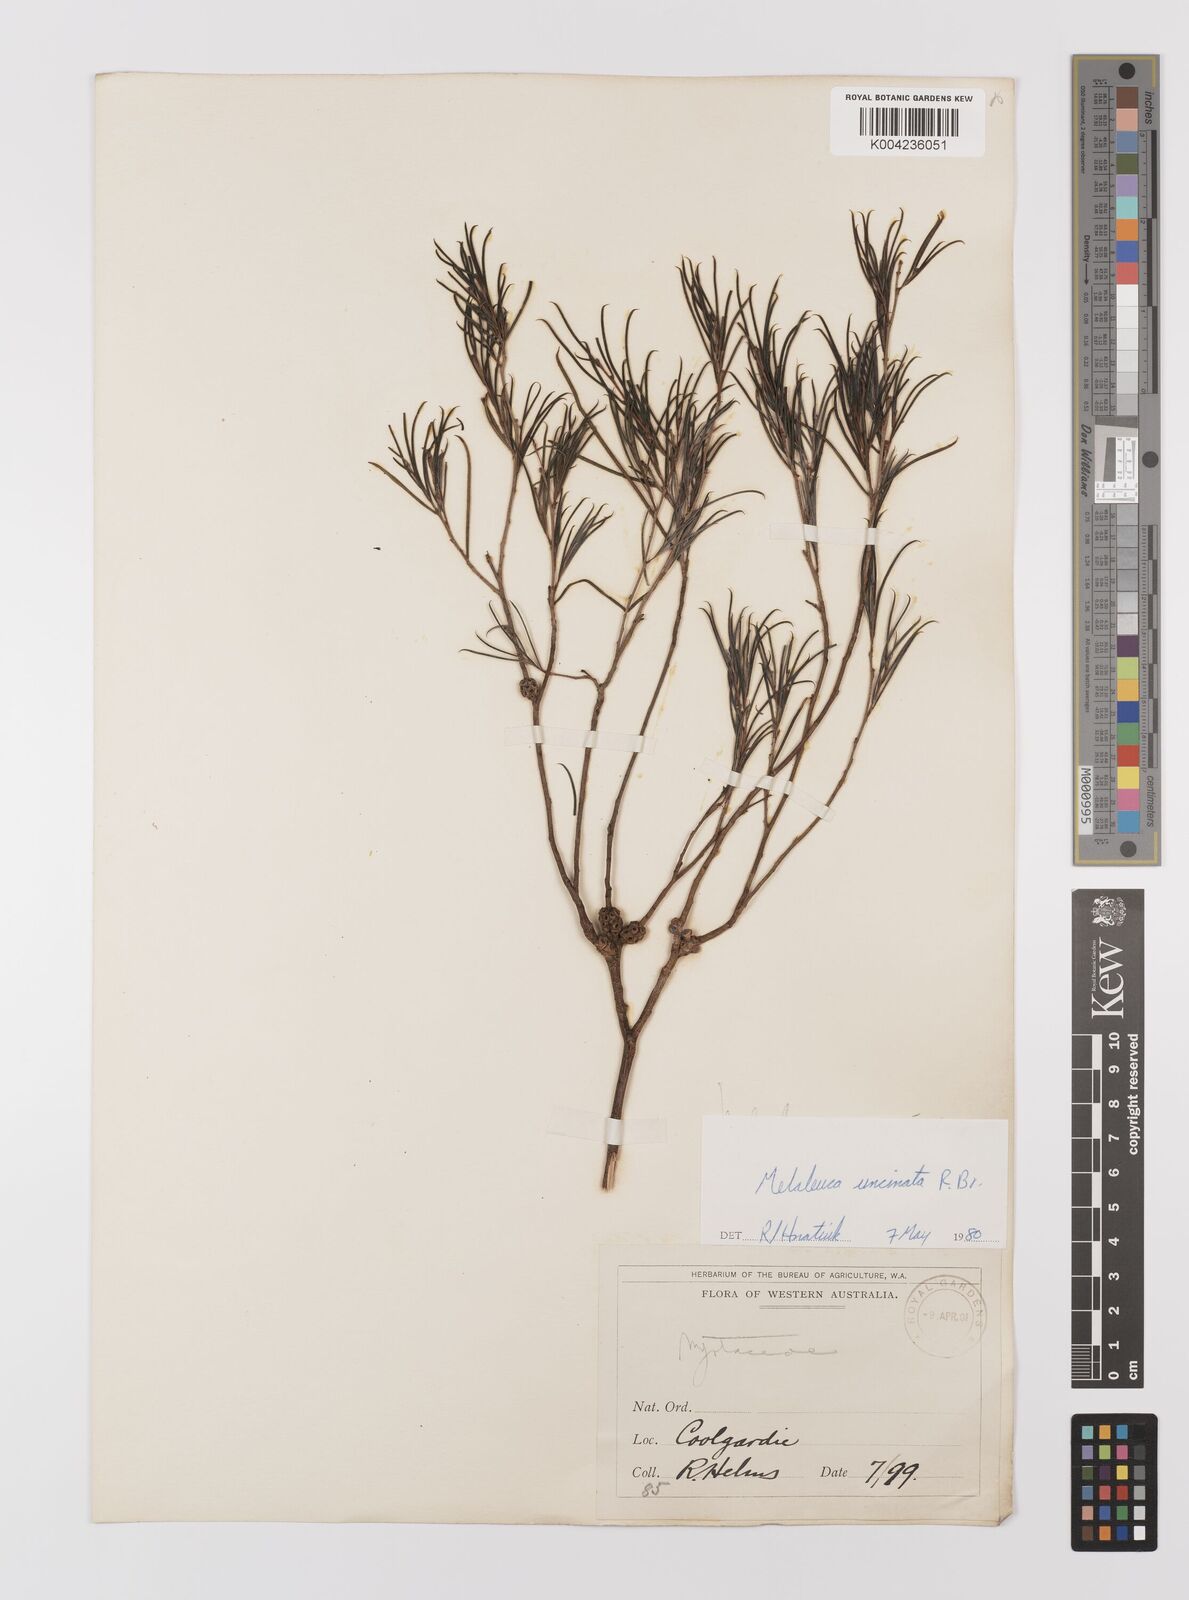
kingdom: Plantae
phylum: Tracheophyta
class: Magnoliopsida
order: Myrtales
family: Myrtaceae
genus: Melaleuca
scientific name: Melaleuca uncinata
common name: Broom honey myrtle
